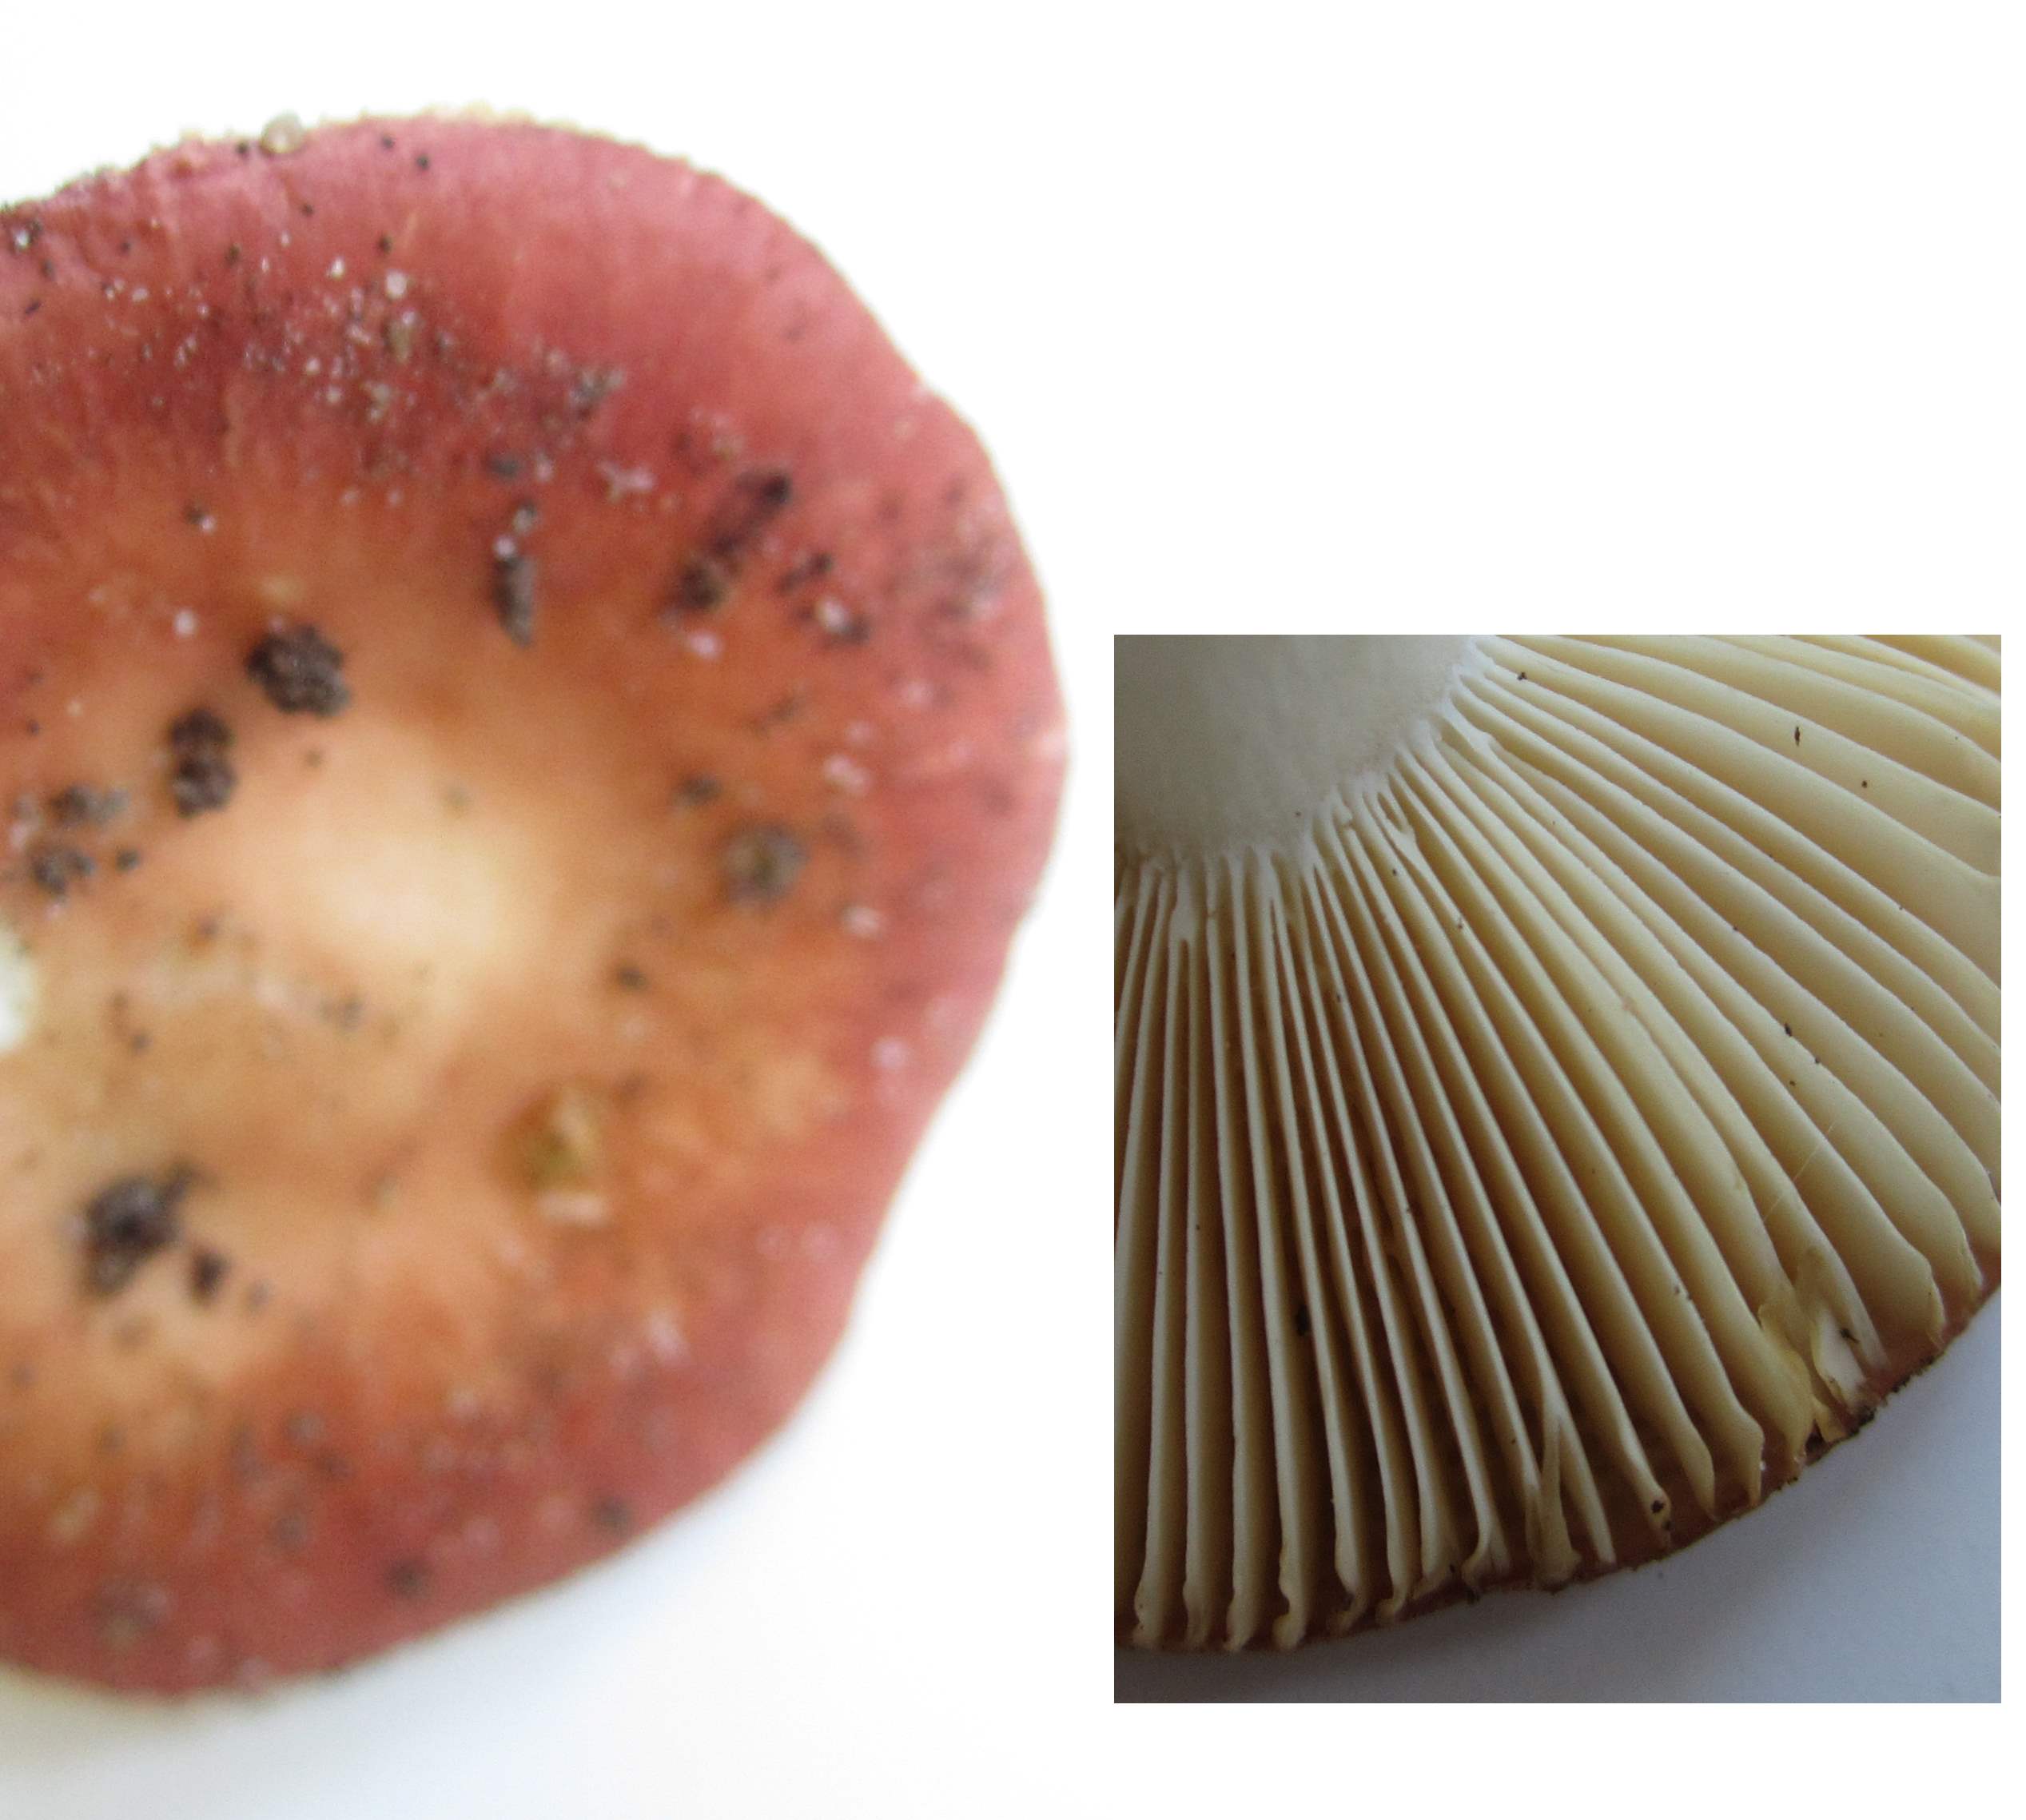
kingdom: Fungi
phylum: Basidiomycota
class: Agaricomycetes
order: Russulales
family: Russulaceae
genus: Russula
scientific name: Russula risigallina
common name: abrikos-skørhat
